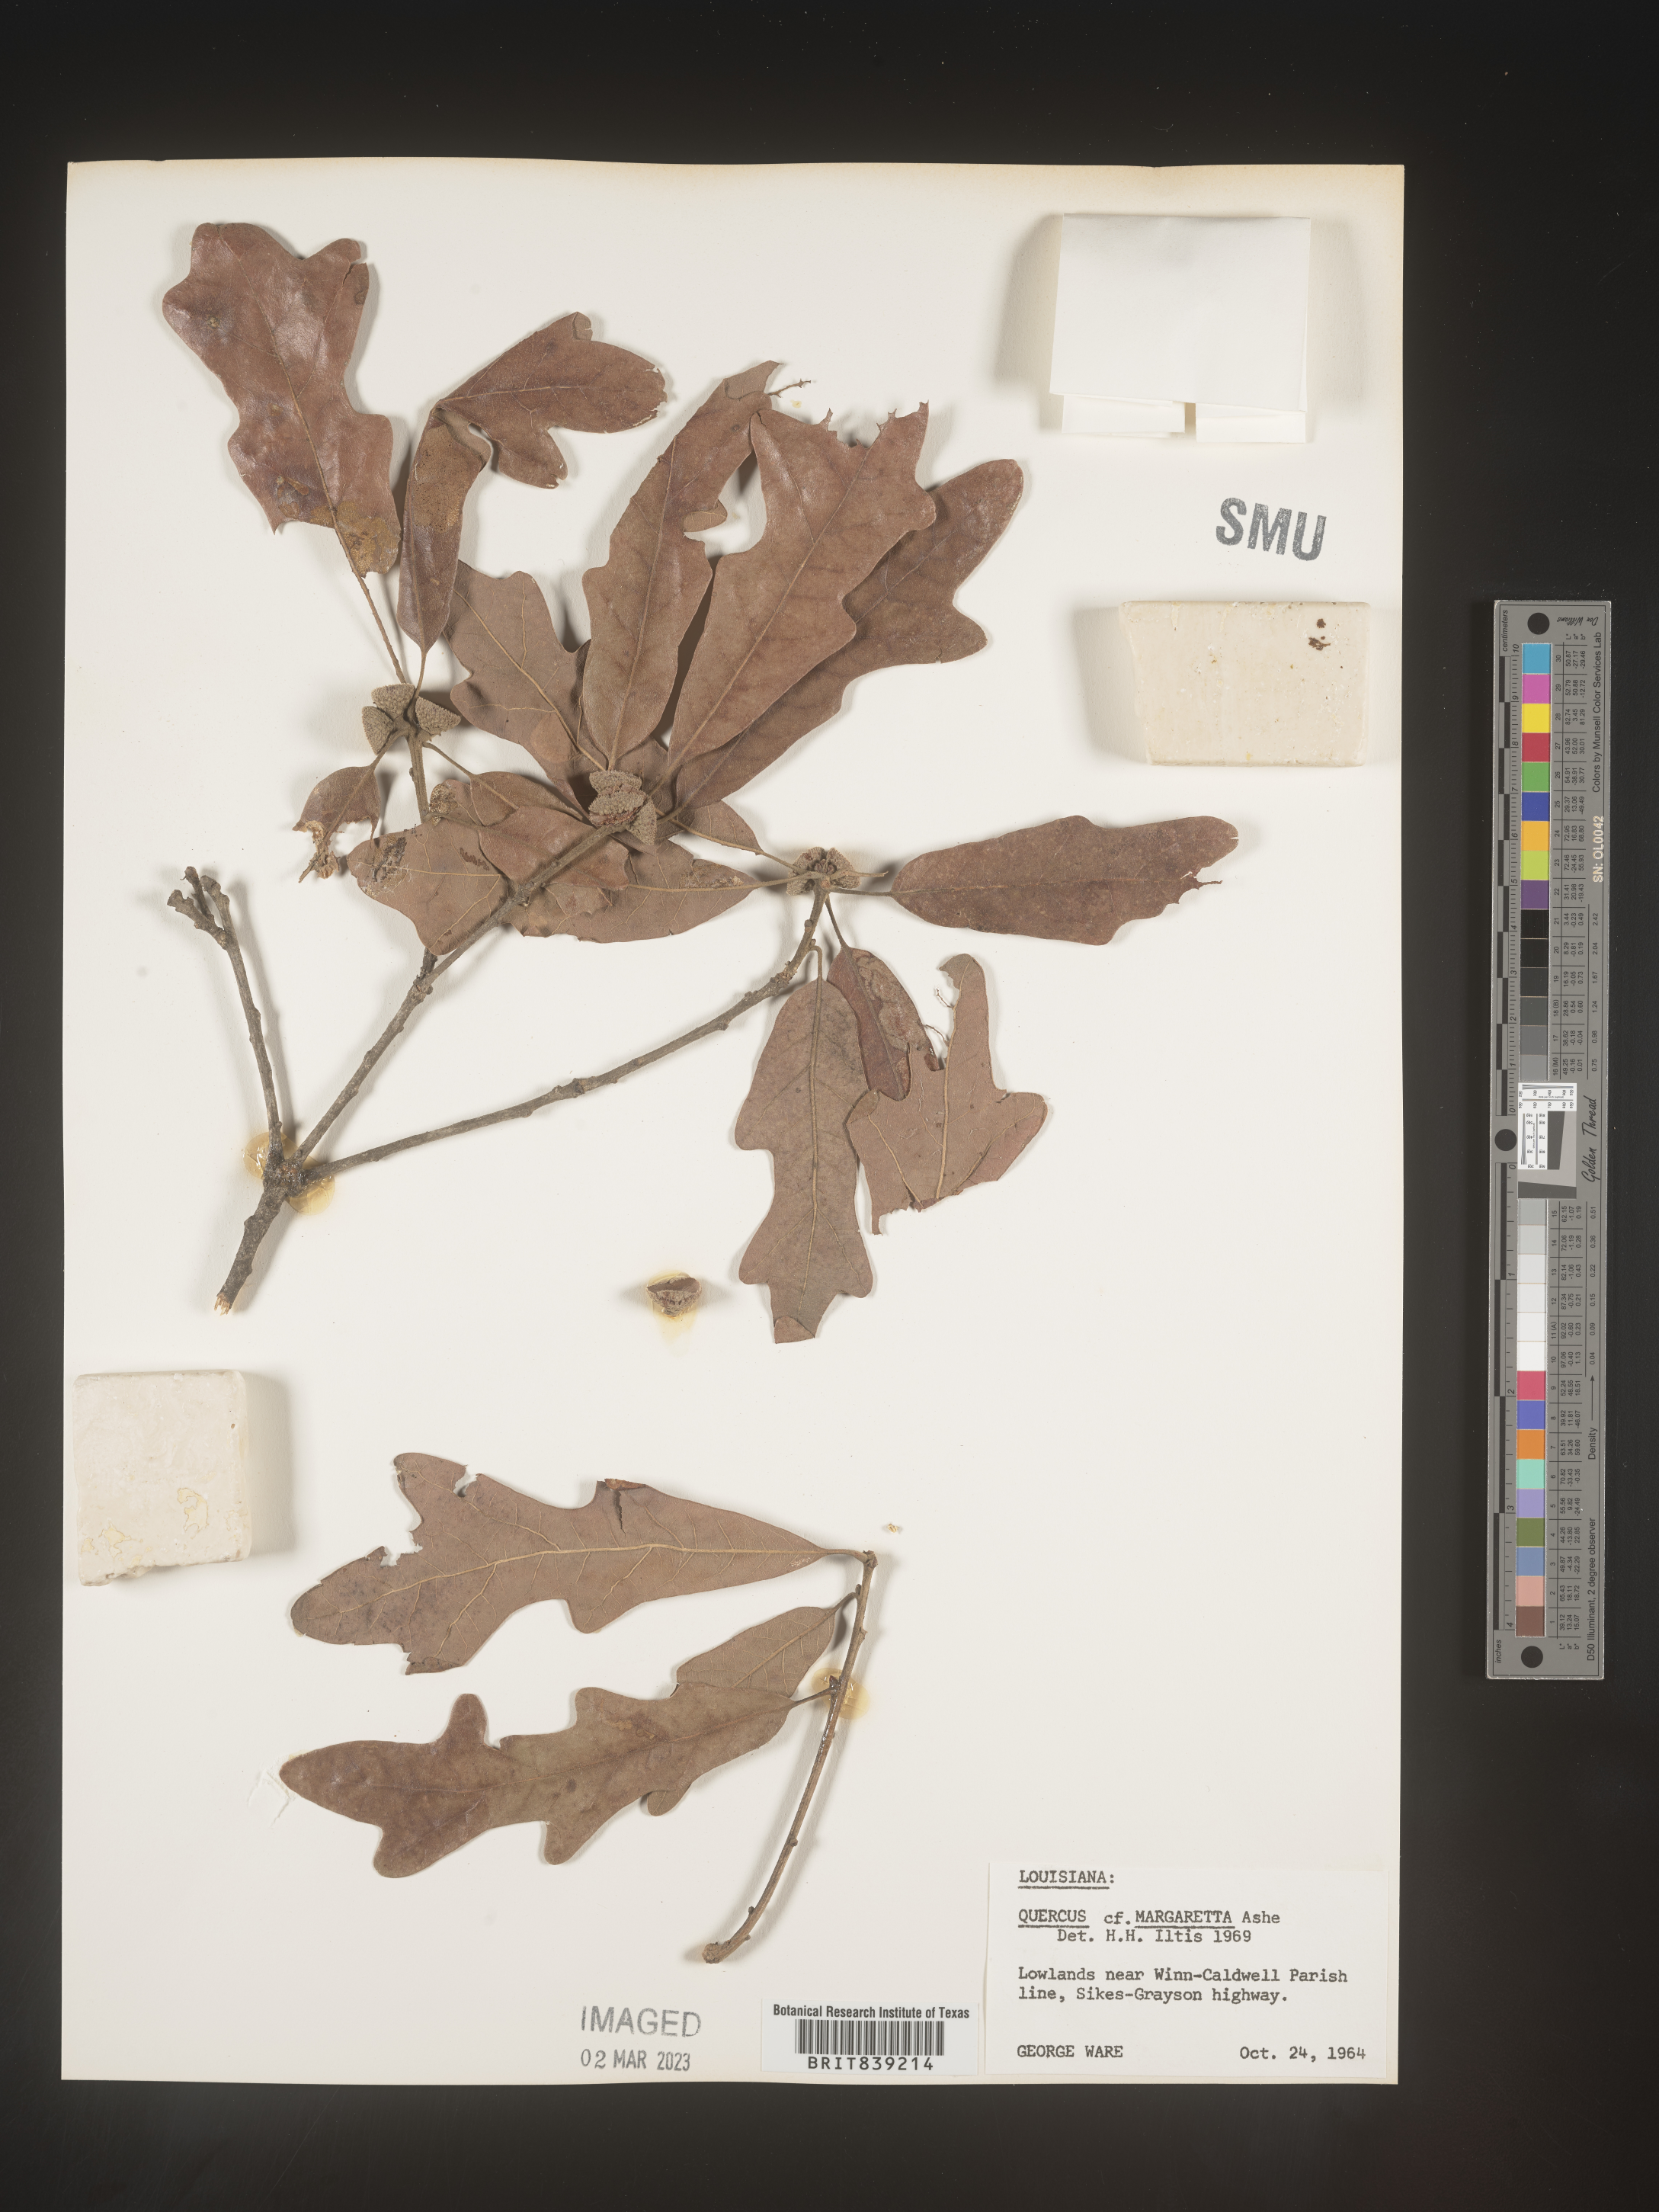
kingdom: Plantae
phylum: Tracheophyta
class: Magnoliopsida
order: Fagales
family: Fagaceae
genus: Quercus
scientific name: Quercus margaretta
